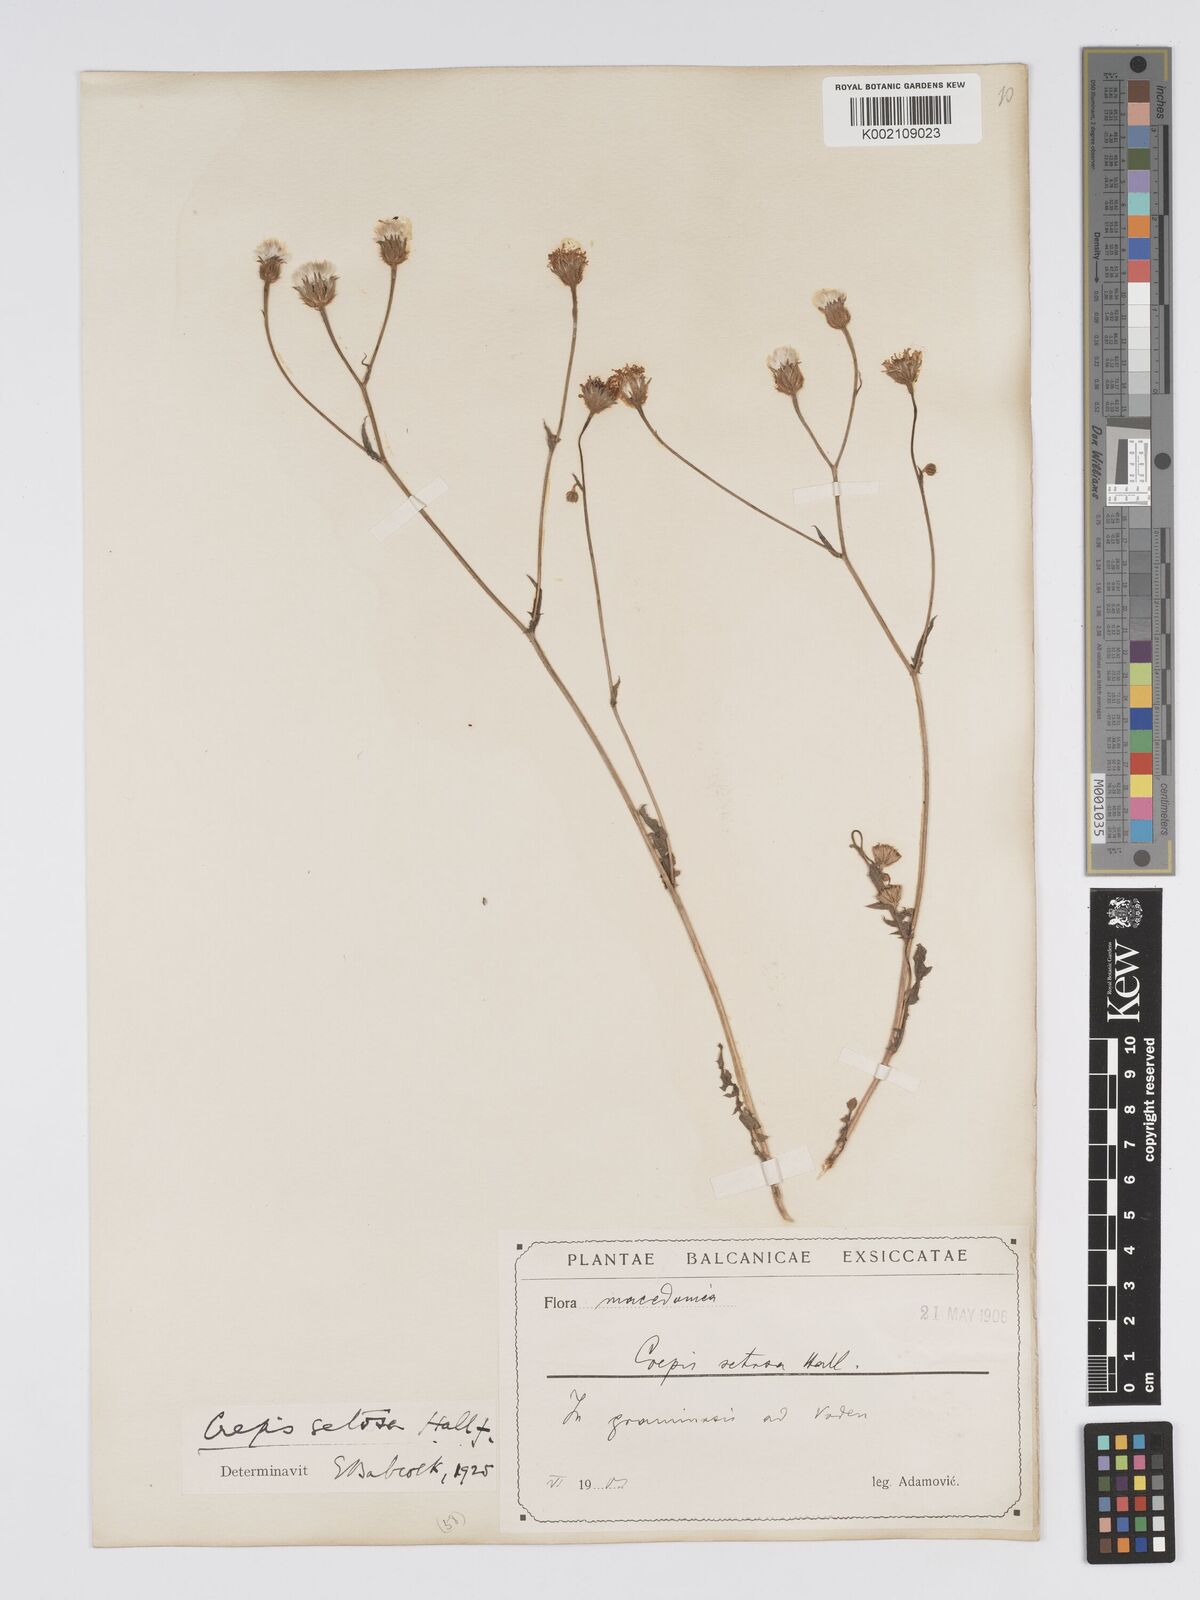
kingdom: Plantae
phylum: Tracheophyta
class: Magnoliopsida
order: Asterales
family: Asteraceae
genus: Crepis
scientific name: Crepis setosa
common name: Bristly hawk's-beard
